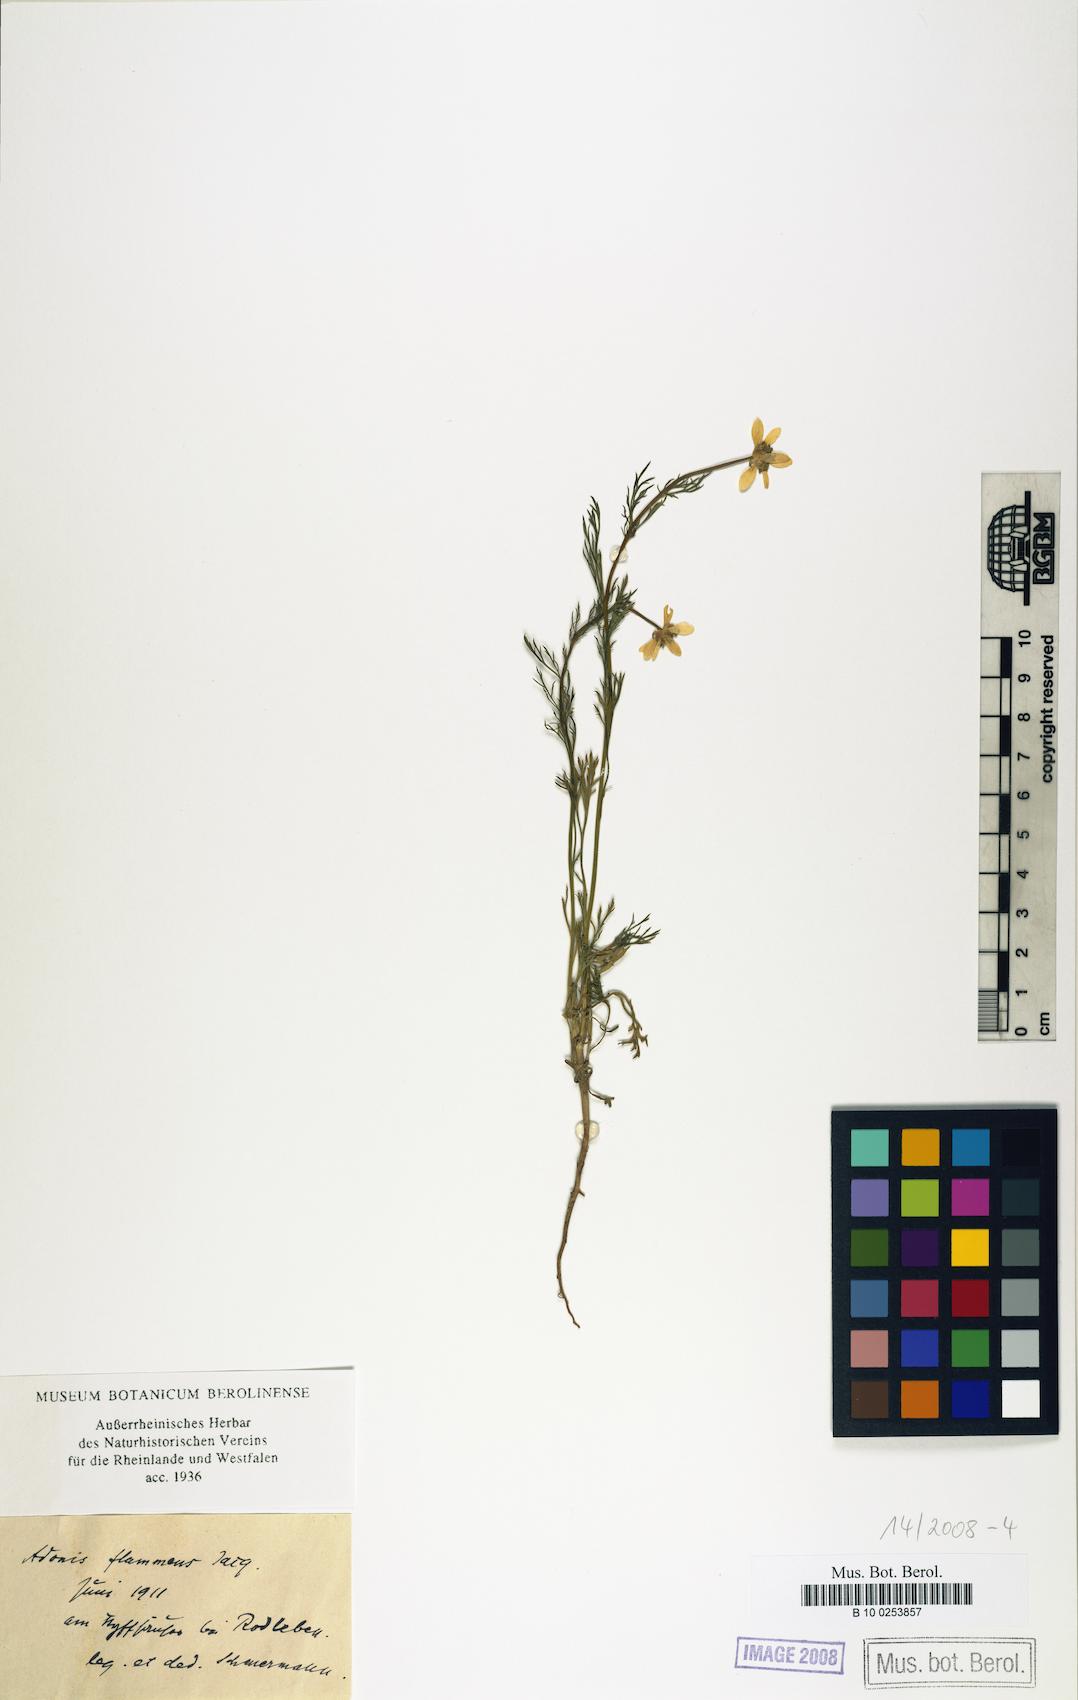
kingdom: Plantae
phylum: Tracheophyta
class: Magnoliopsida
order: Ranunculales
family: Ranunculaceae
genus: Adonis
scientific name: Adonis flammea
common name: Large pheasant's-eye
